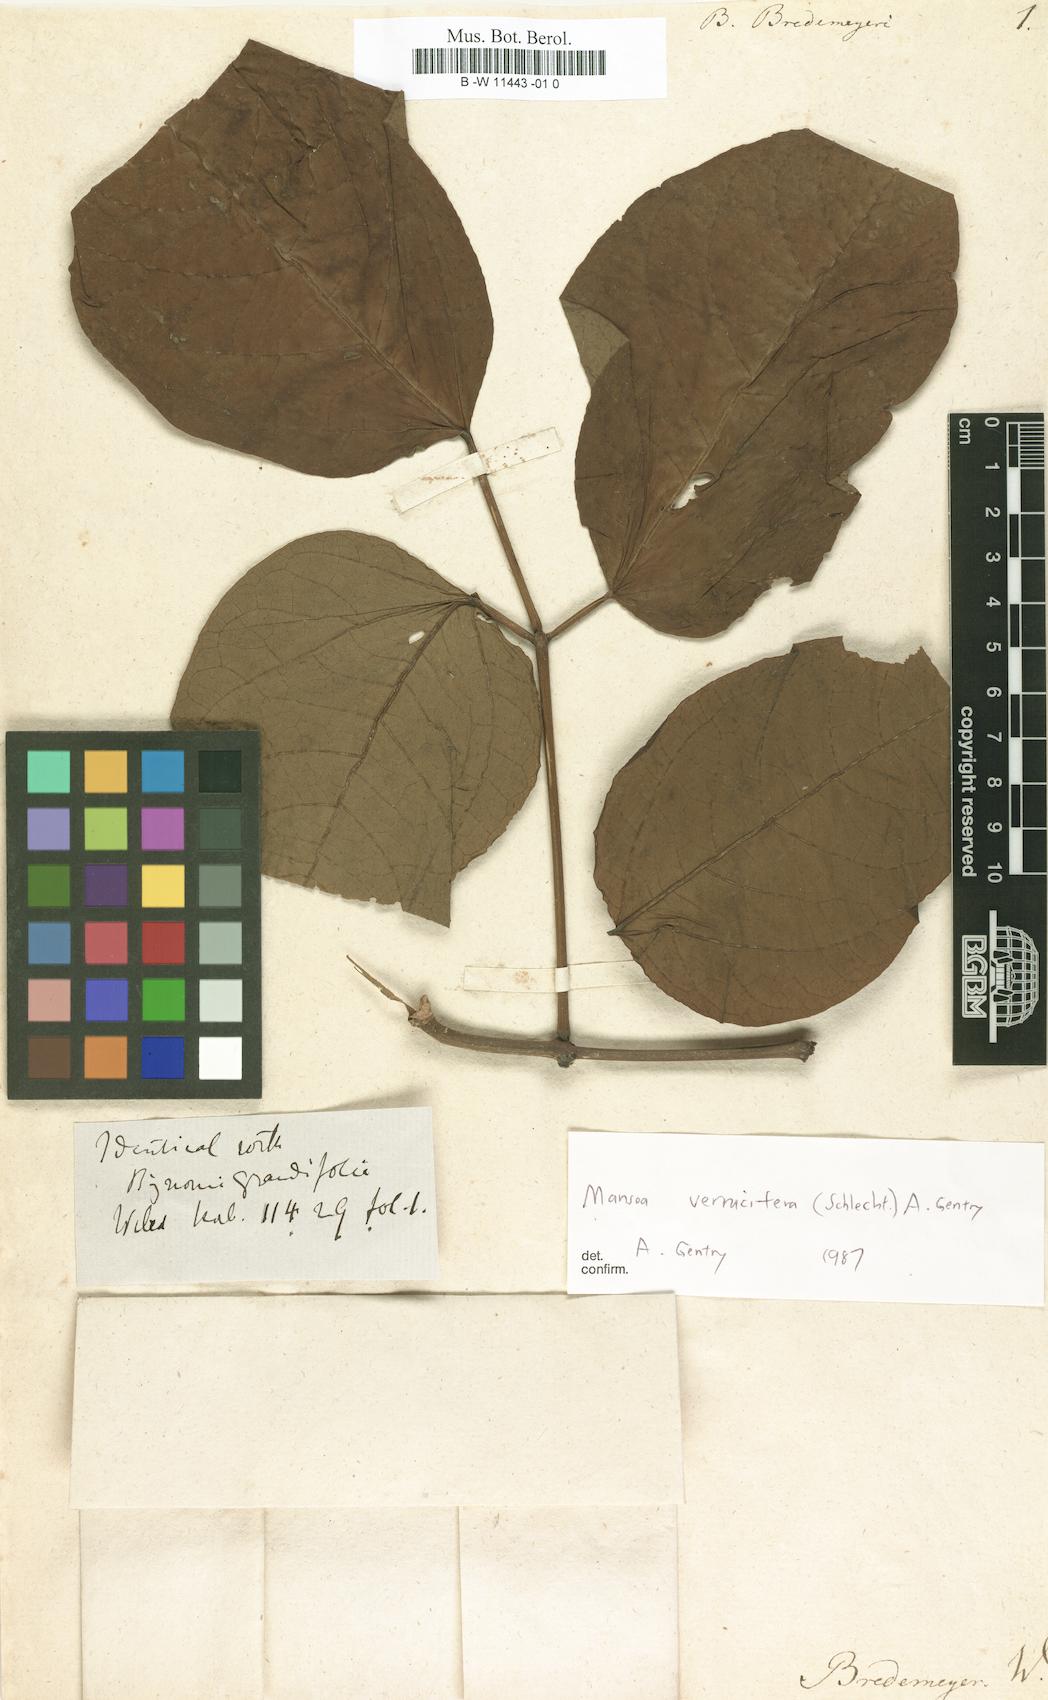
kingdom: Plantae
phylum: Tracheophyta
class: Magnoliopsida
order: Lamiales
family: Bignoniaceae
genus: Bignonia
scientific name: Bignonia
